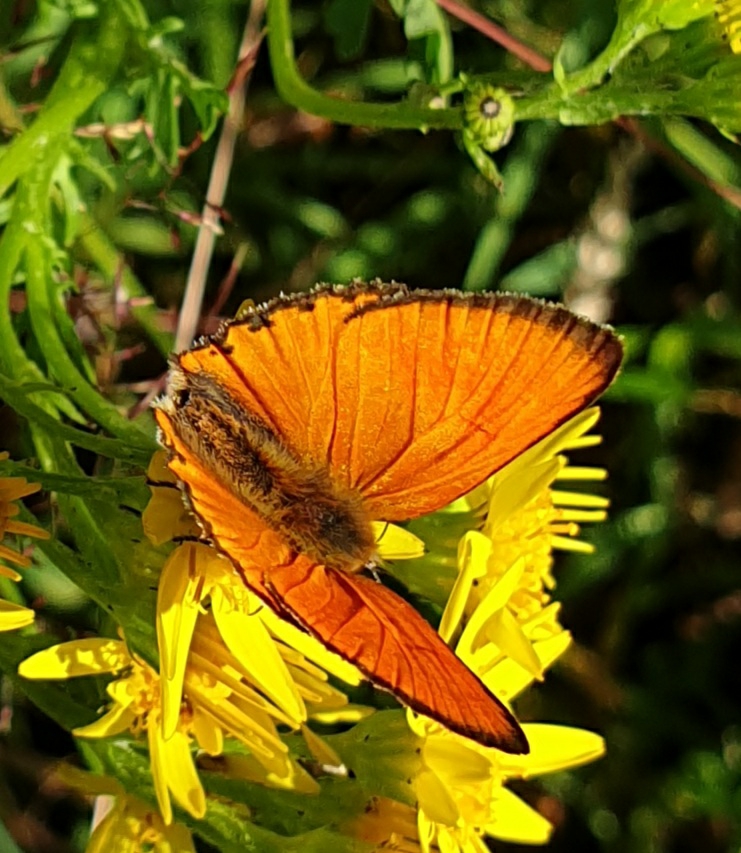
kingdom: Animalia
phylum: Arthropoda
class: Insecta
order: Lepidoptera
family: Lycaenidae
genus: Lycaena
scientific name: Lycaena virgaureae
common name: Dukatsommerfugl
